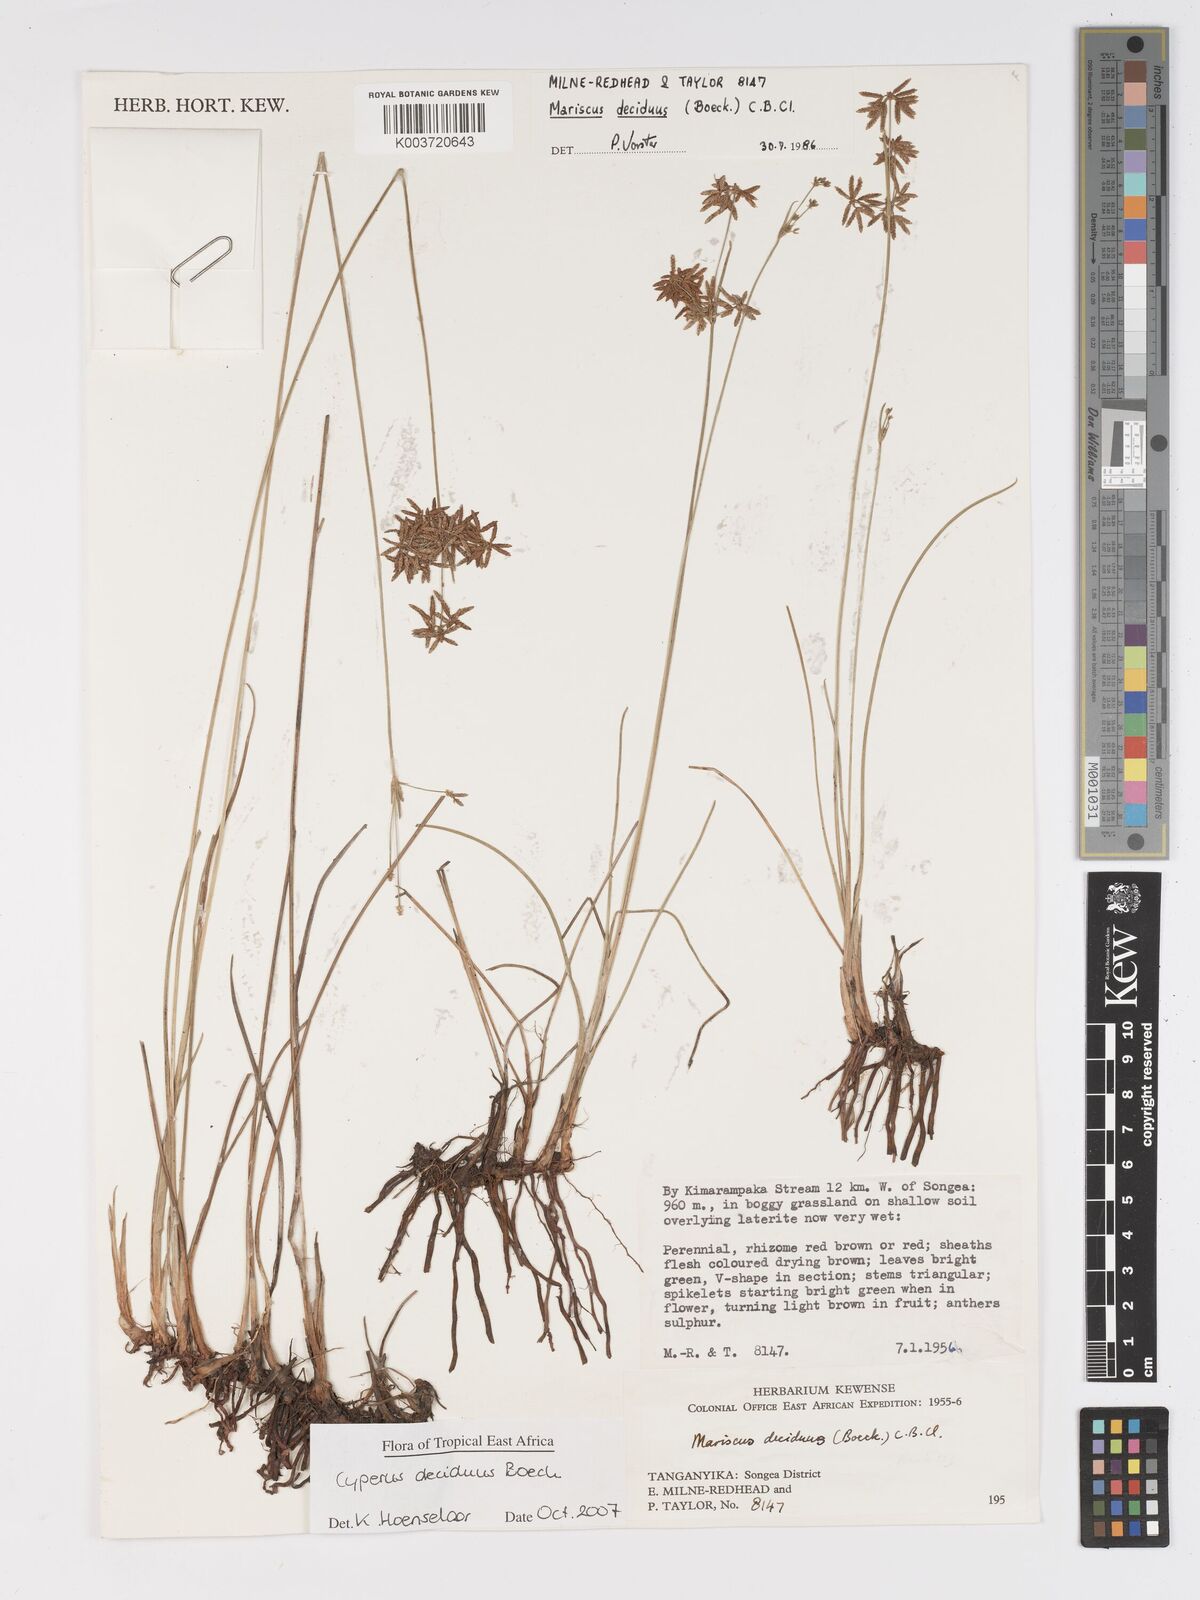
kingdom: Plantae
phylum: Tracheophyta
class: Liliopsida
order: Poales
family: Cyperaceae
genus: Cyperus
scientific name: Cyperus deciduus
